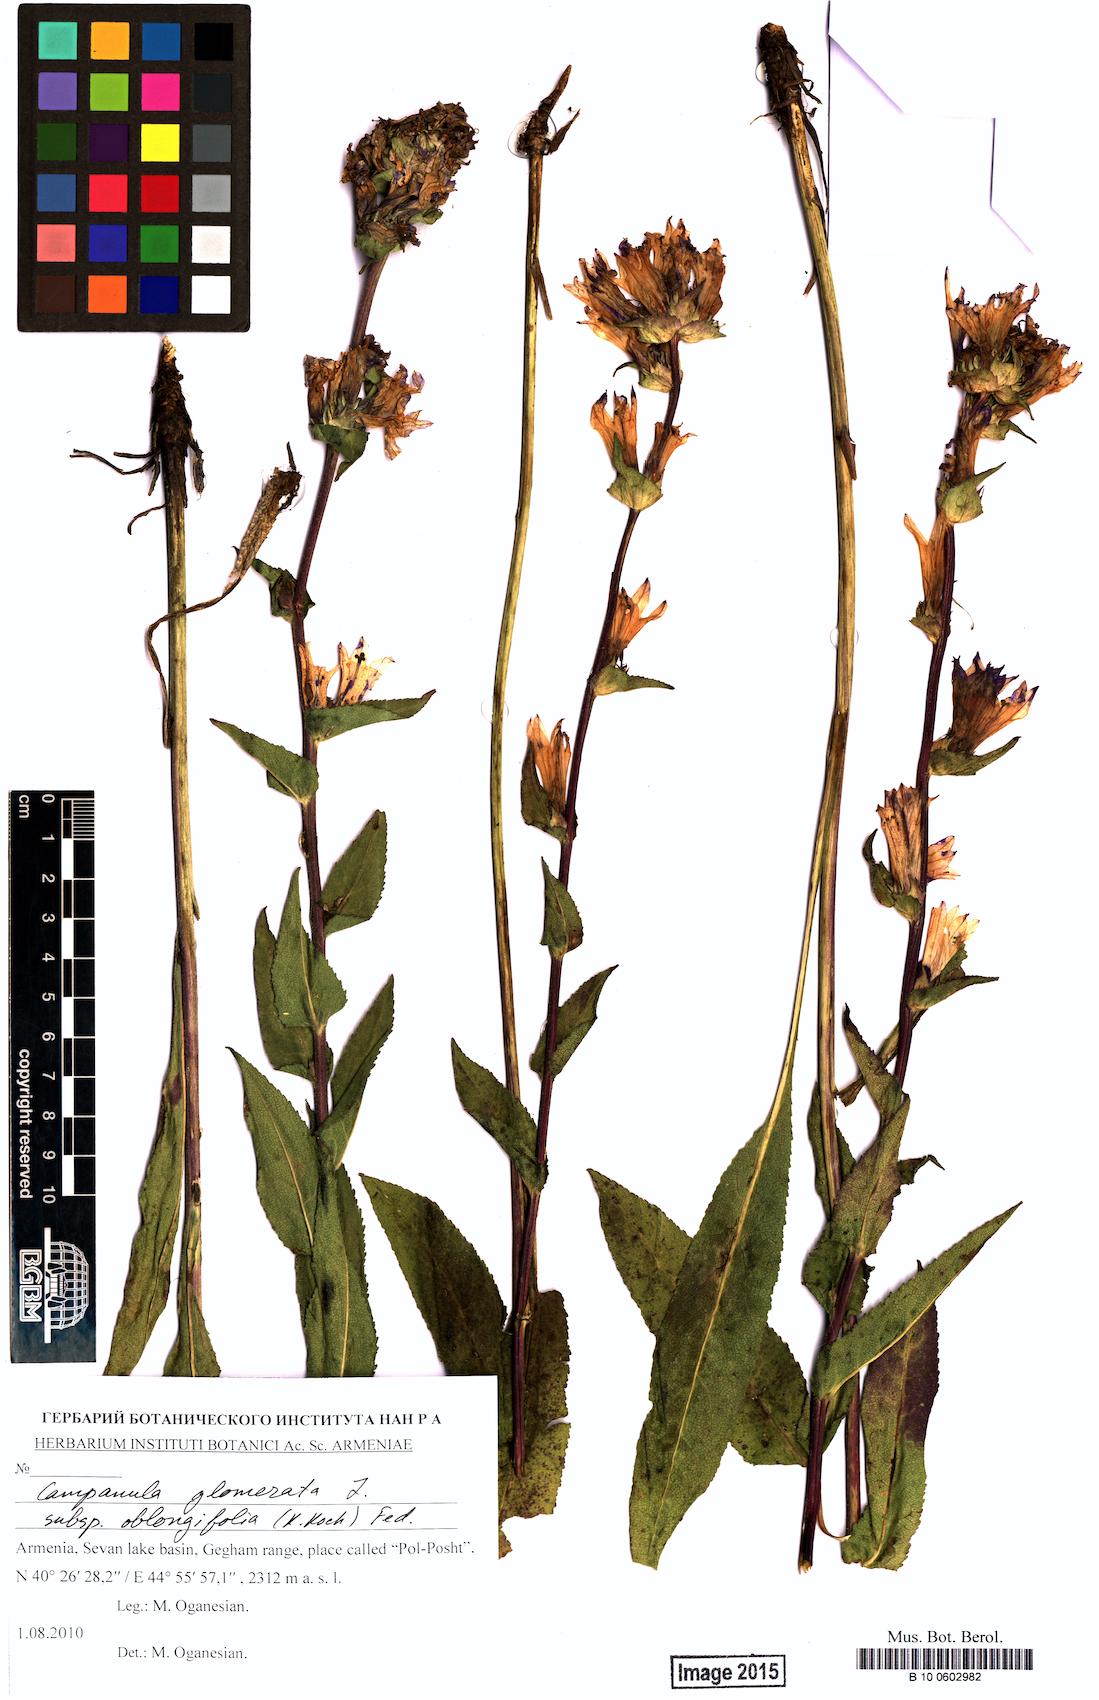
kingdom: Plantae
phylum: Tracheophyta
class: Magnoliopsida
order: Asterales
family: Campanulaceae
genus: Campanula
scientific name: Campanula glomerata
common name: Clustered bellflower
